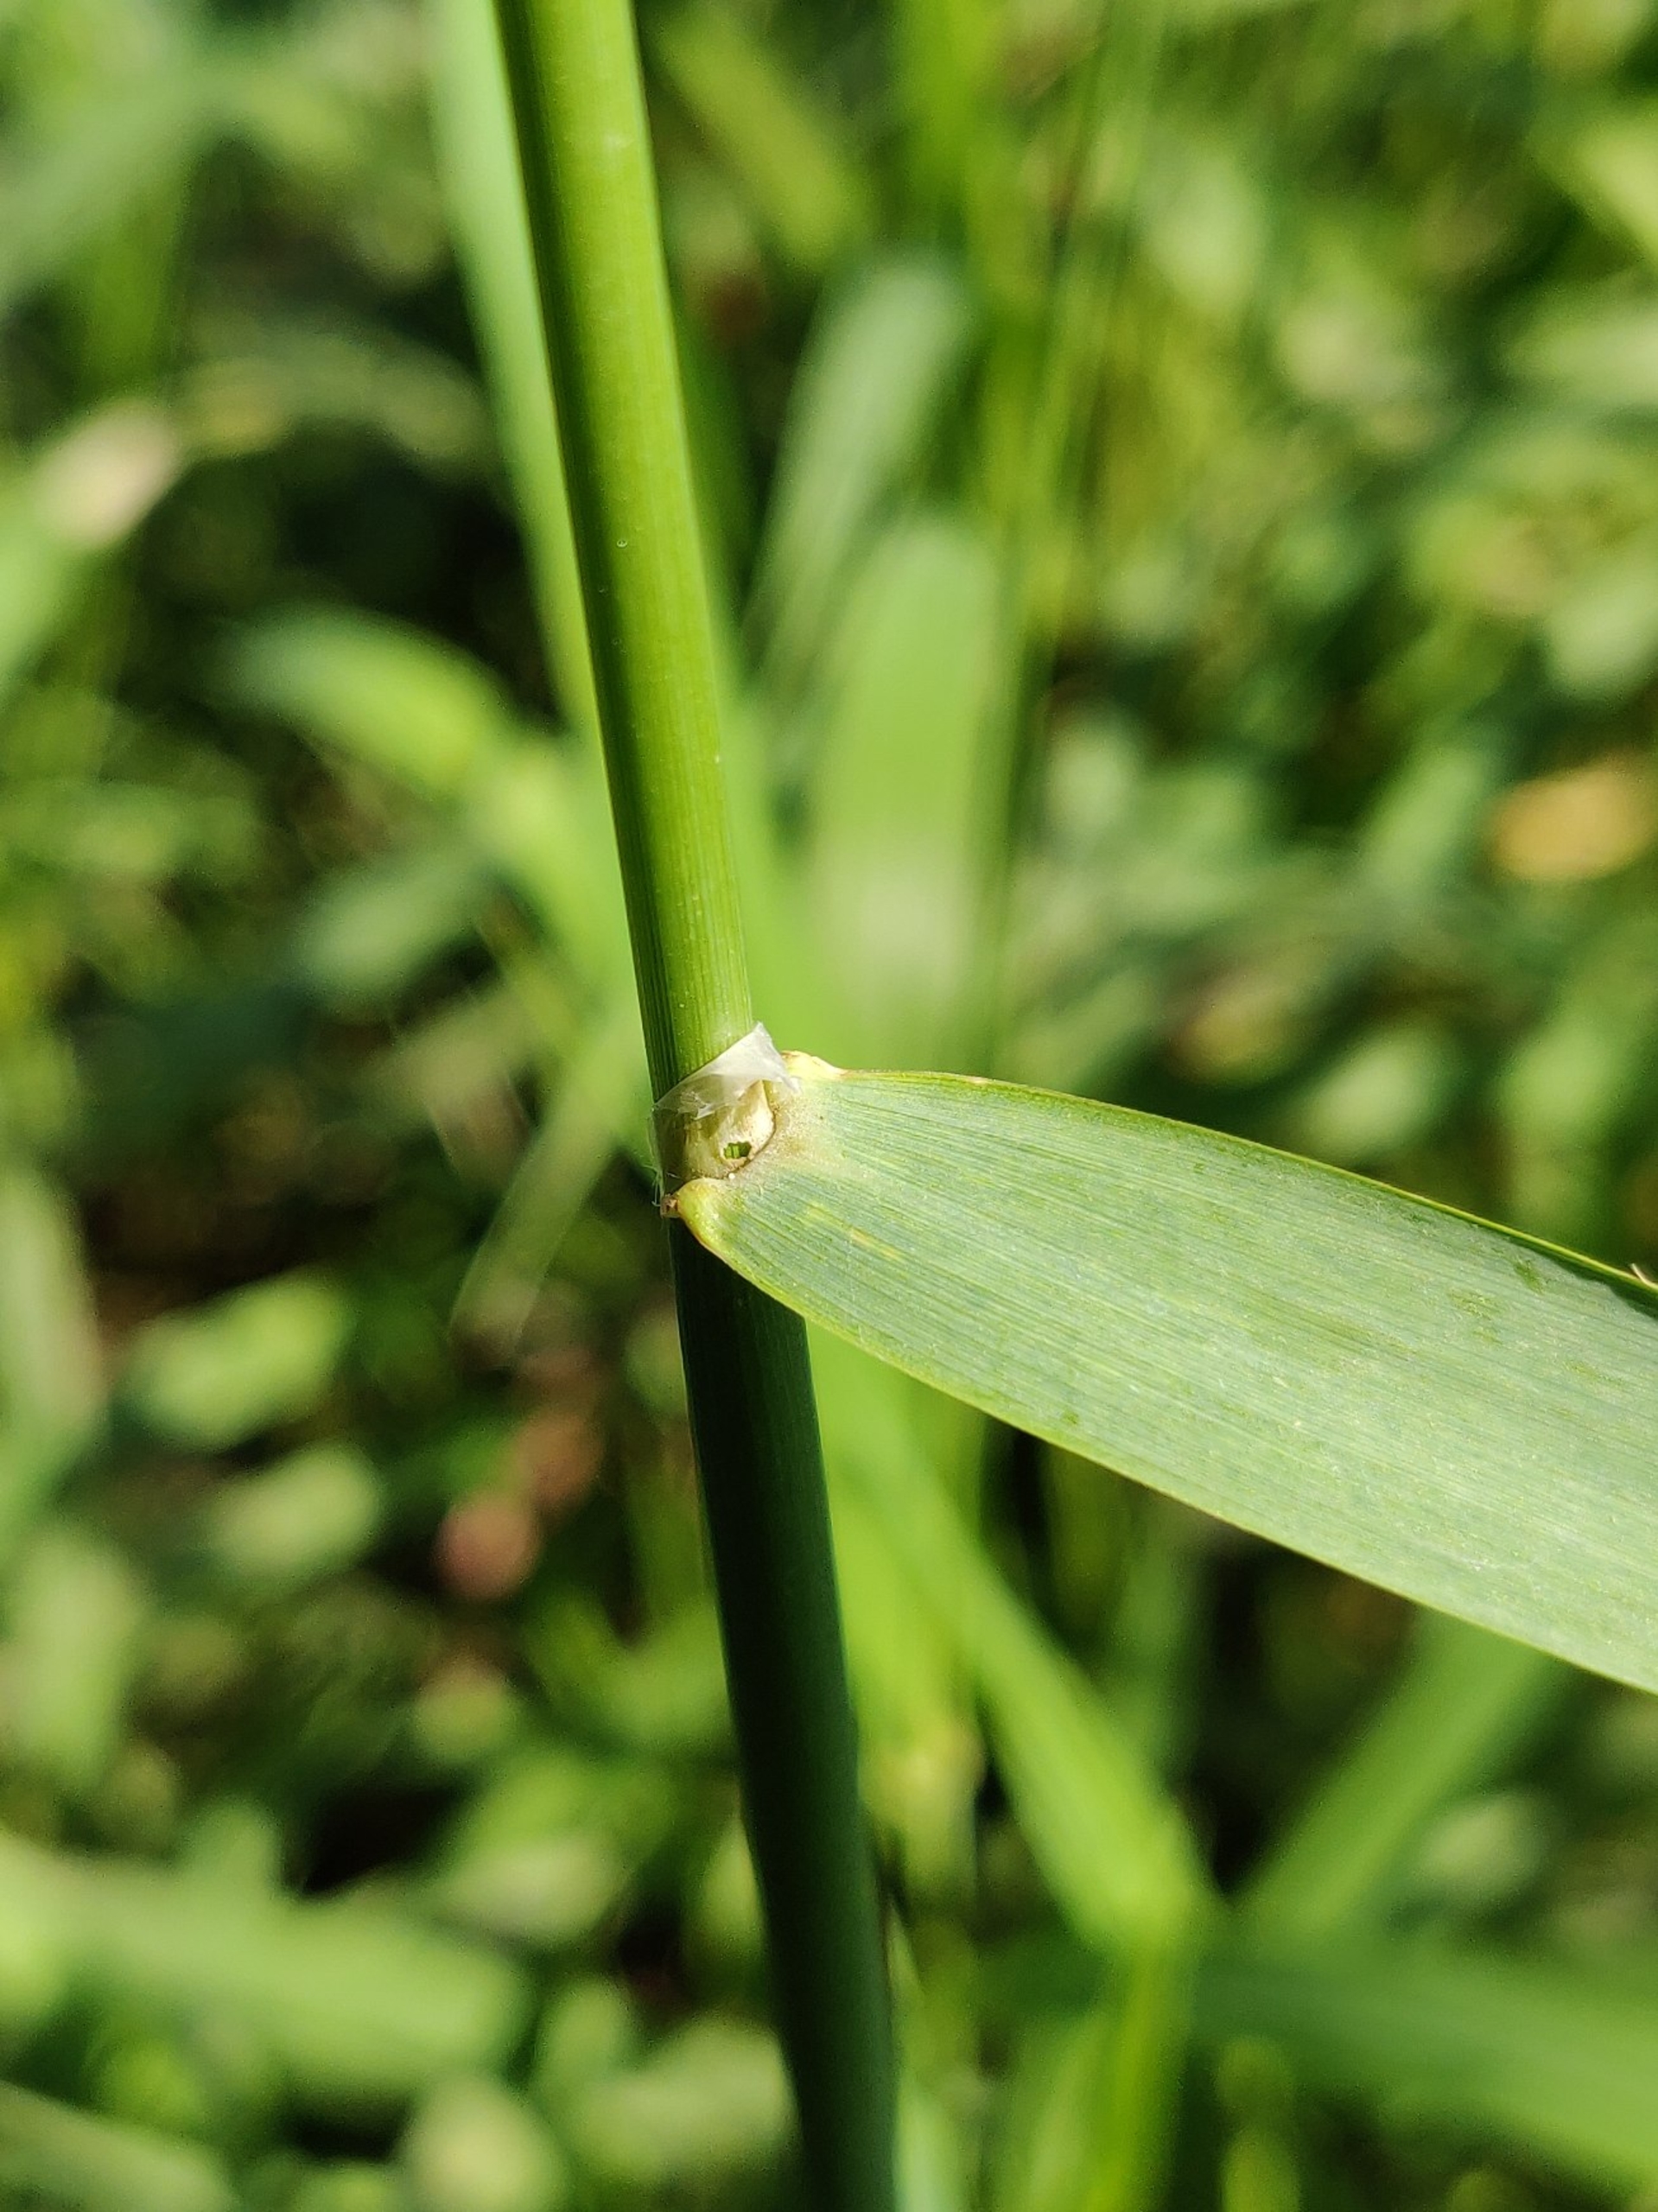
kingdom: Plantae
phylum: Tracheophyta
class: Liliopsida
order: Poales
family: Poaceae
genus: Phalaris
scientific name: Phalaris arundinacea
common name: Rørgræs
